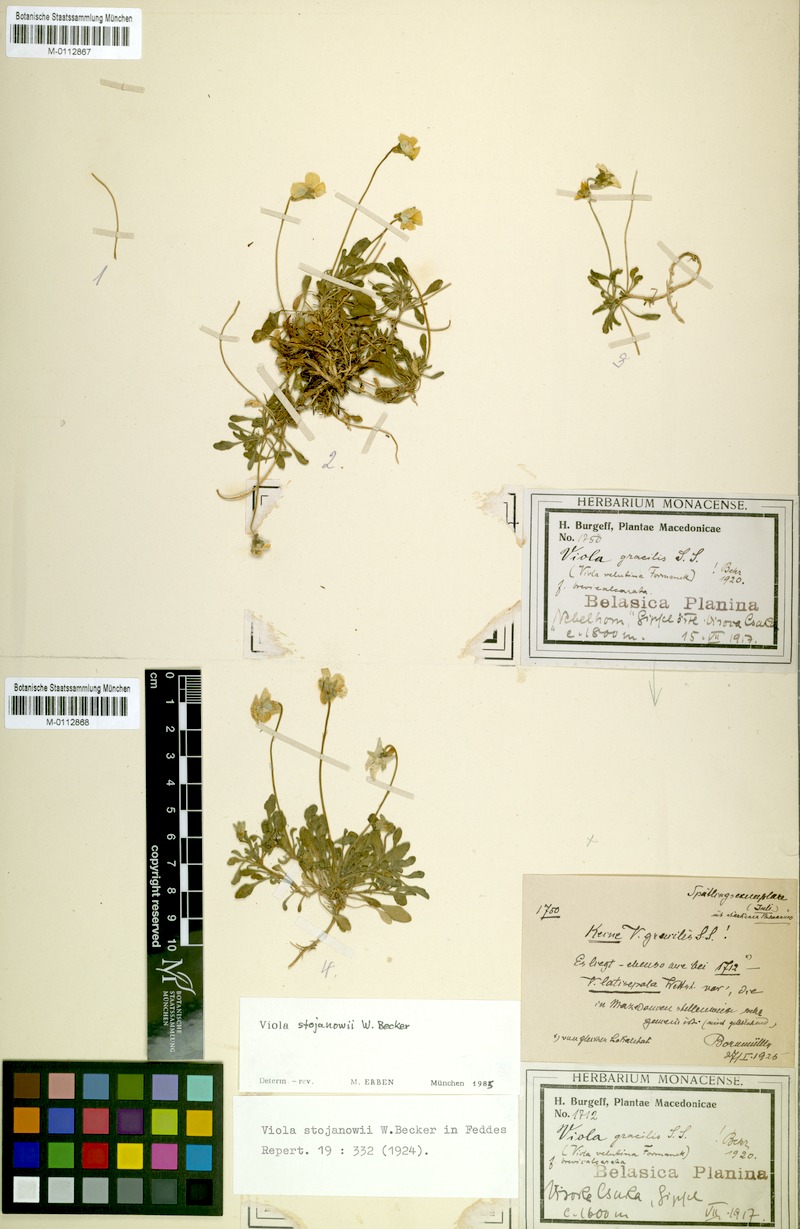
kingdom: Plantae
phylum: Tracheophyta
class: Magnoliopsida
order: Malpighiales
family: Violaceae
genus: Viola
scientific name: Viola stojanowii
